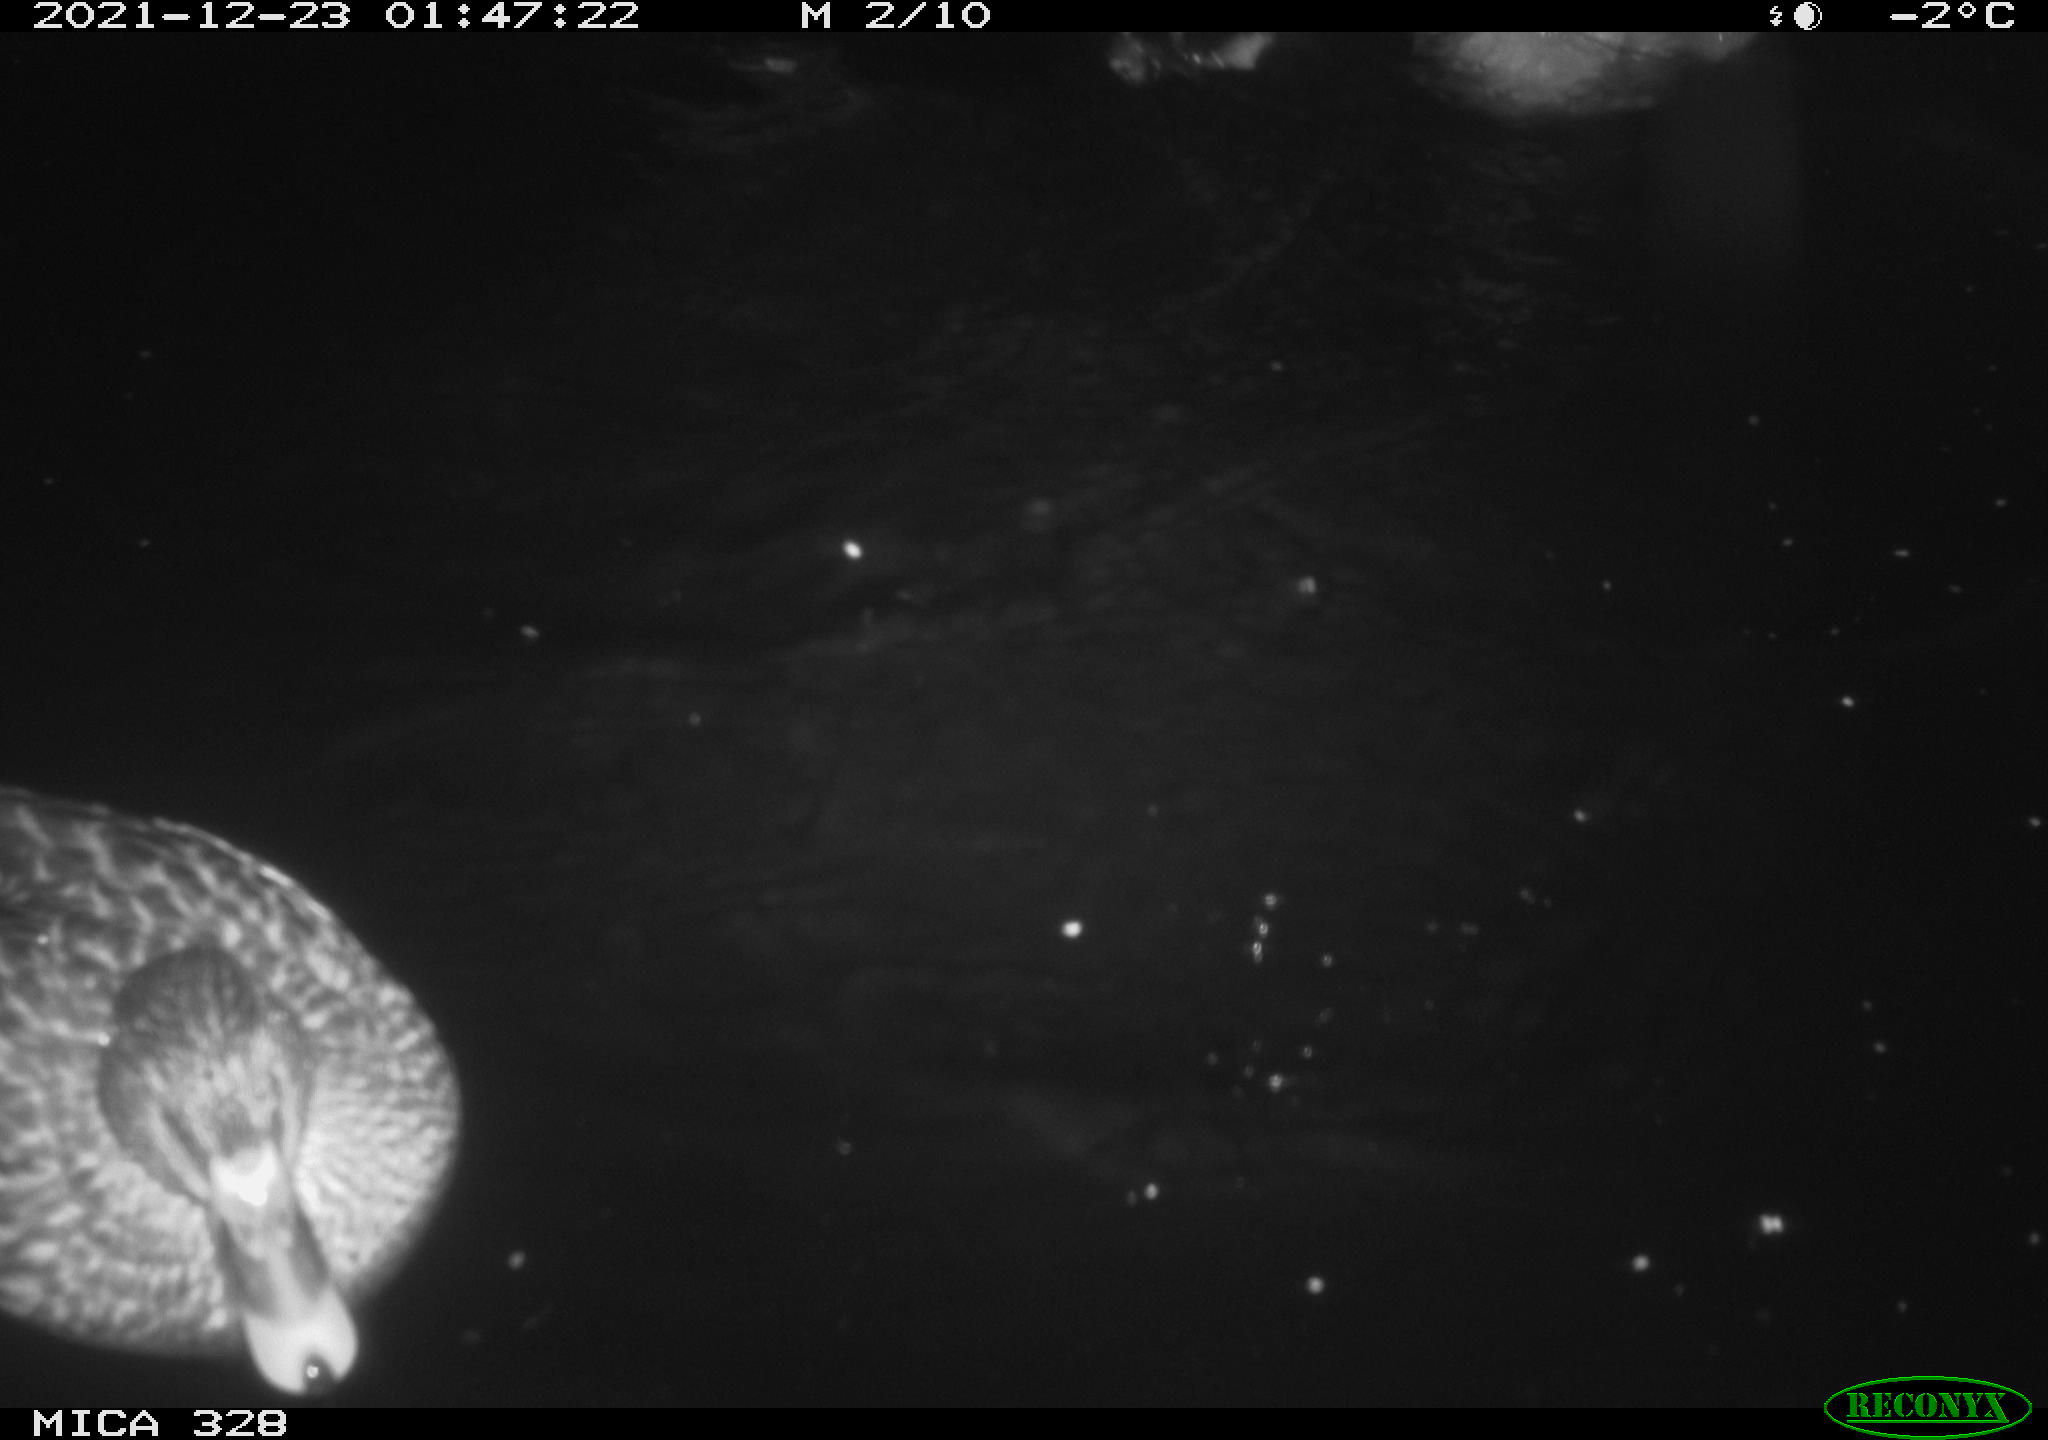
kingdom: Animalia
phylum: Chordata
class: Aves
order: Anseriformes
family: Anatidae
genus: Anas
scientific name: Anas platyrhynchos
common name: Mallard
